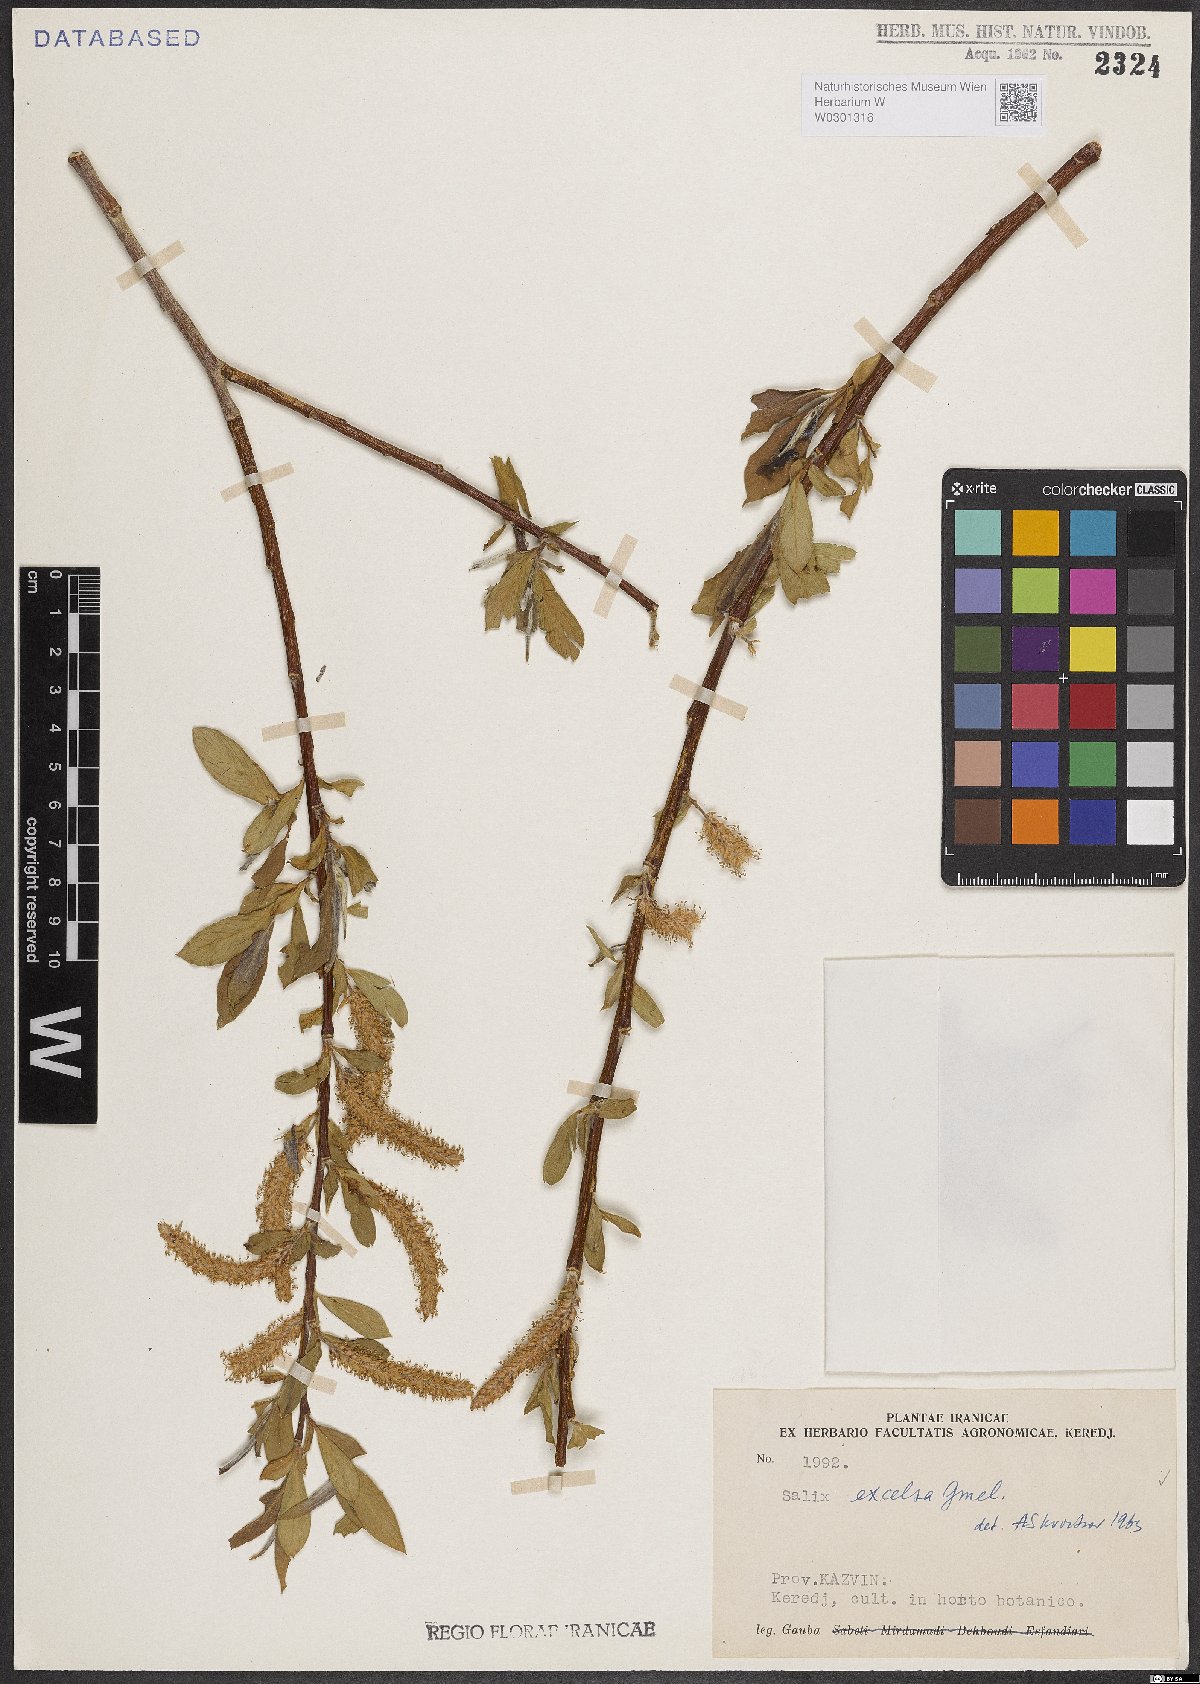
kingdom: Plantae
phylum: Tracheophyta
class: Magnoliopsida
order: Malpighiales
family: Salicaceae
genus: Salix
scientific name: Salix excelsa
